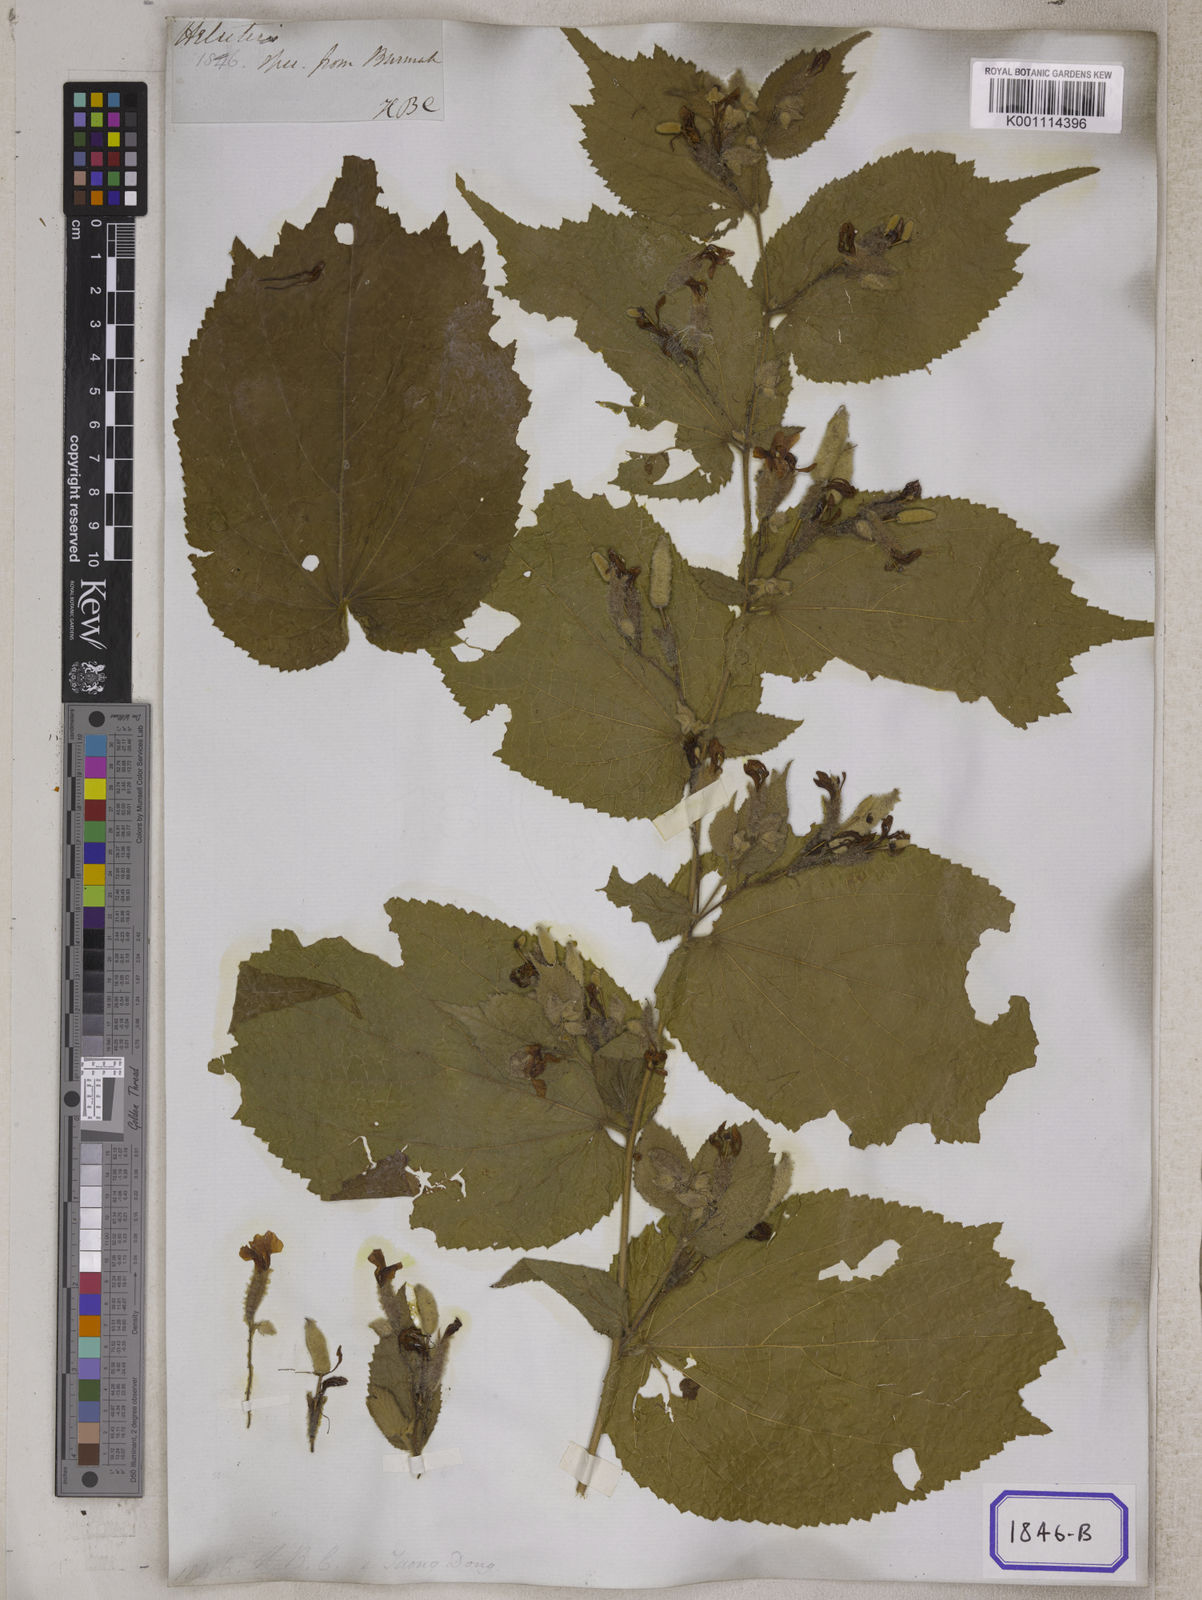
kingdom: Plantae
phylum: Tracheophyta
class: Magnoliopsida
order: Malvales
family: Malvaceae
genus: Helicteres
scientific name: Helicteres hirsuta
